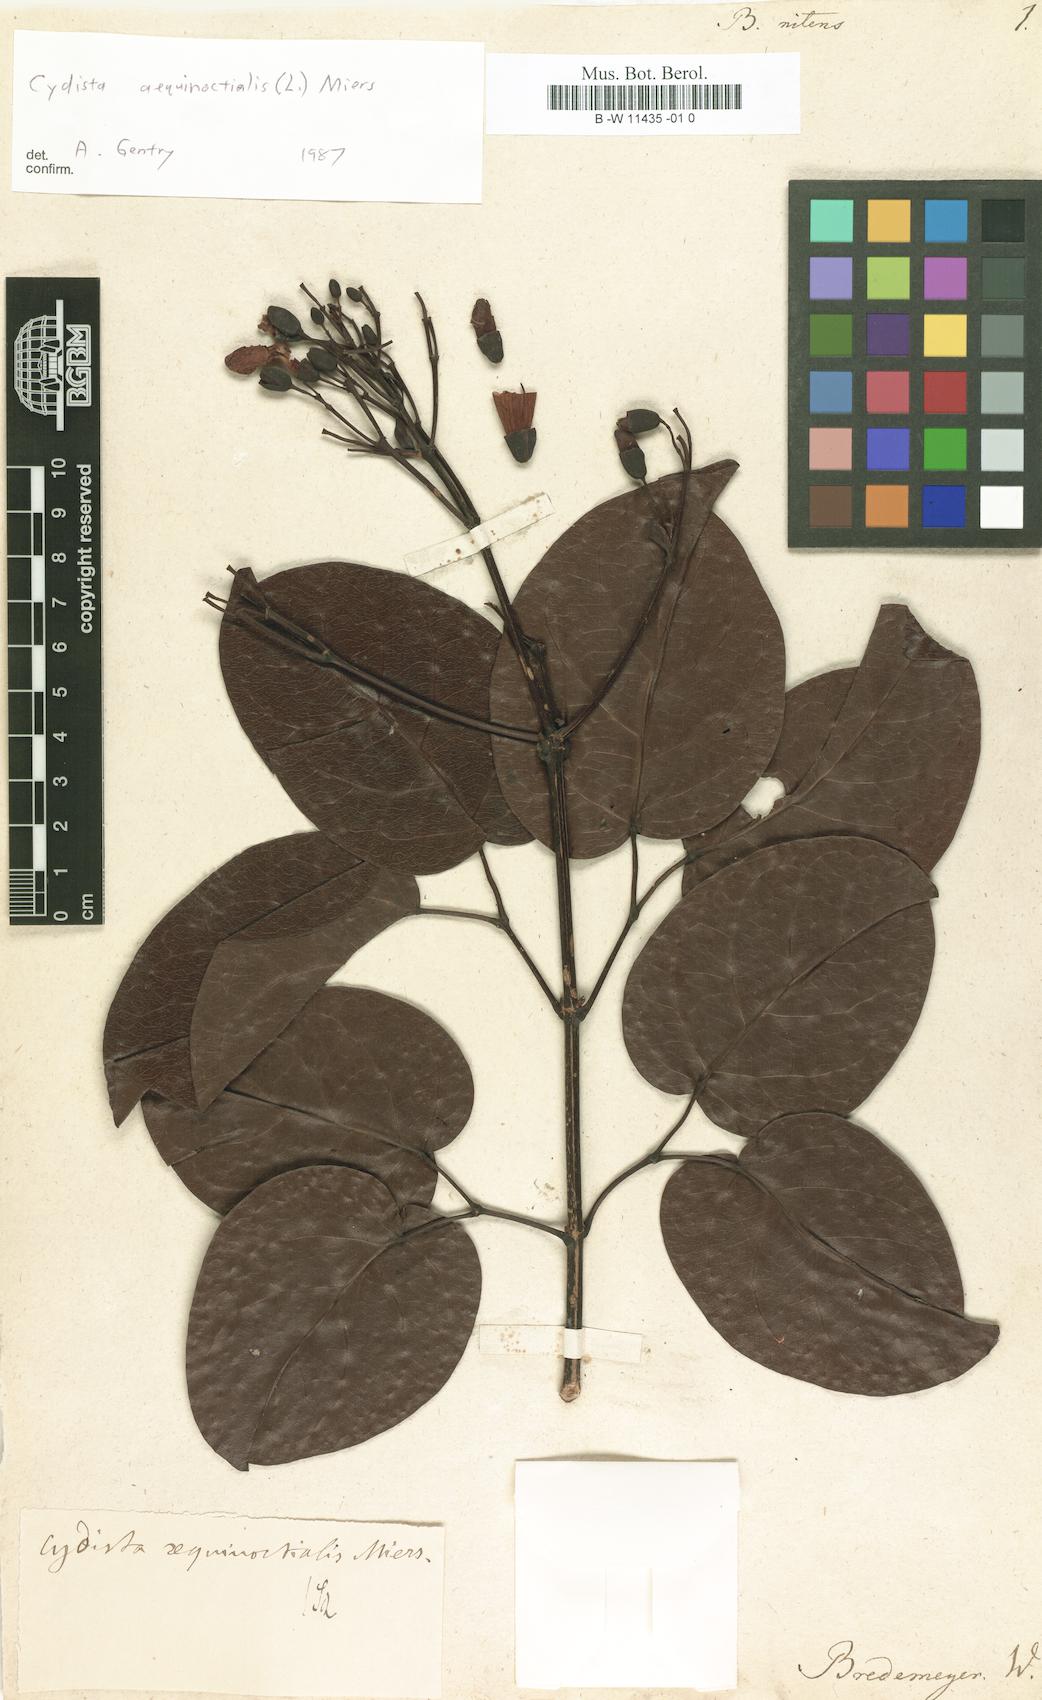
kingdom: Plantae
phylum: Tracheophyta
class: Magnoliopsida
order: Lamiales
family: Bignoniaceae
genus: Bignonia
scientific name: Bignonia
